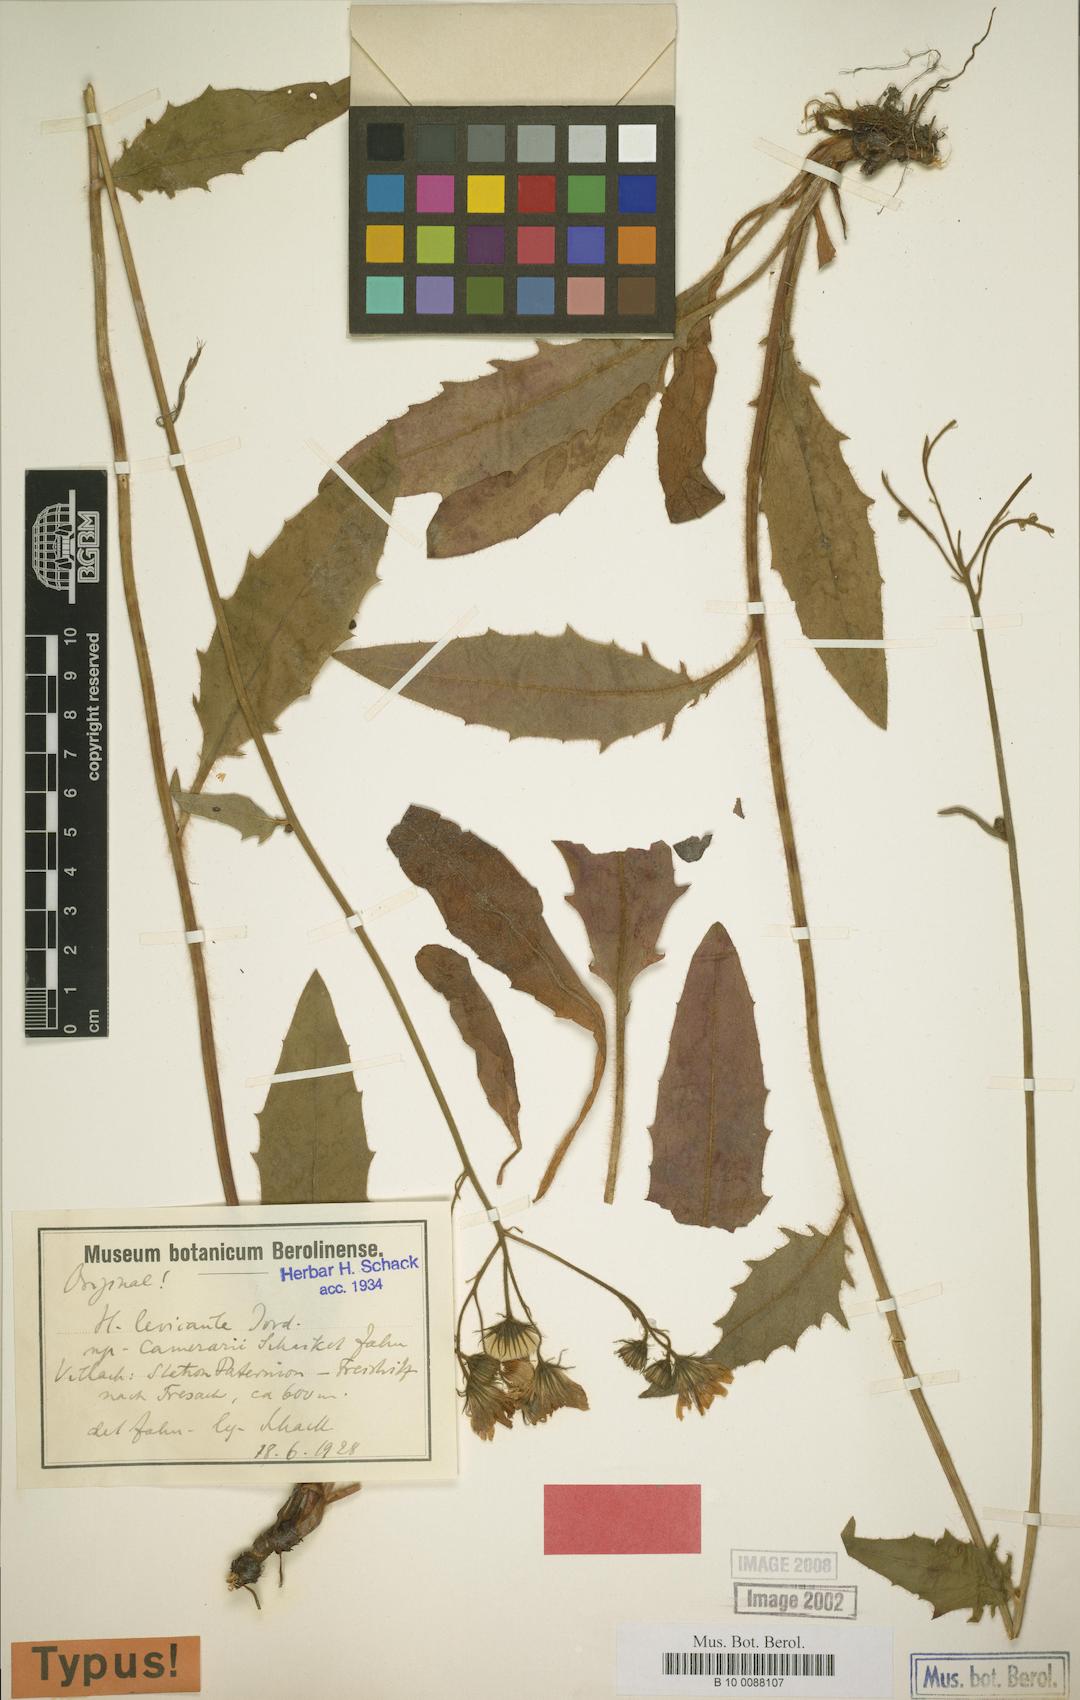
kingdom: Plantae
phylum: Tracheophyta
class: Magnoliopsida
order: Asterales
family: Asteraceae
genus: Hieracium
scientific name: Hieracium levicaule
